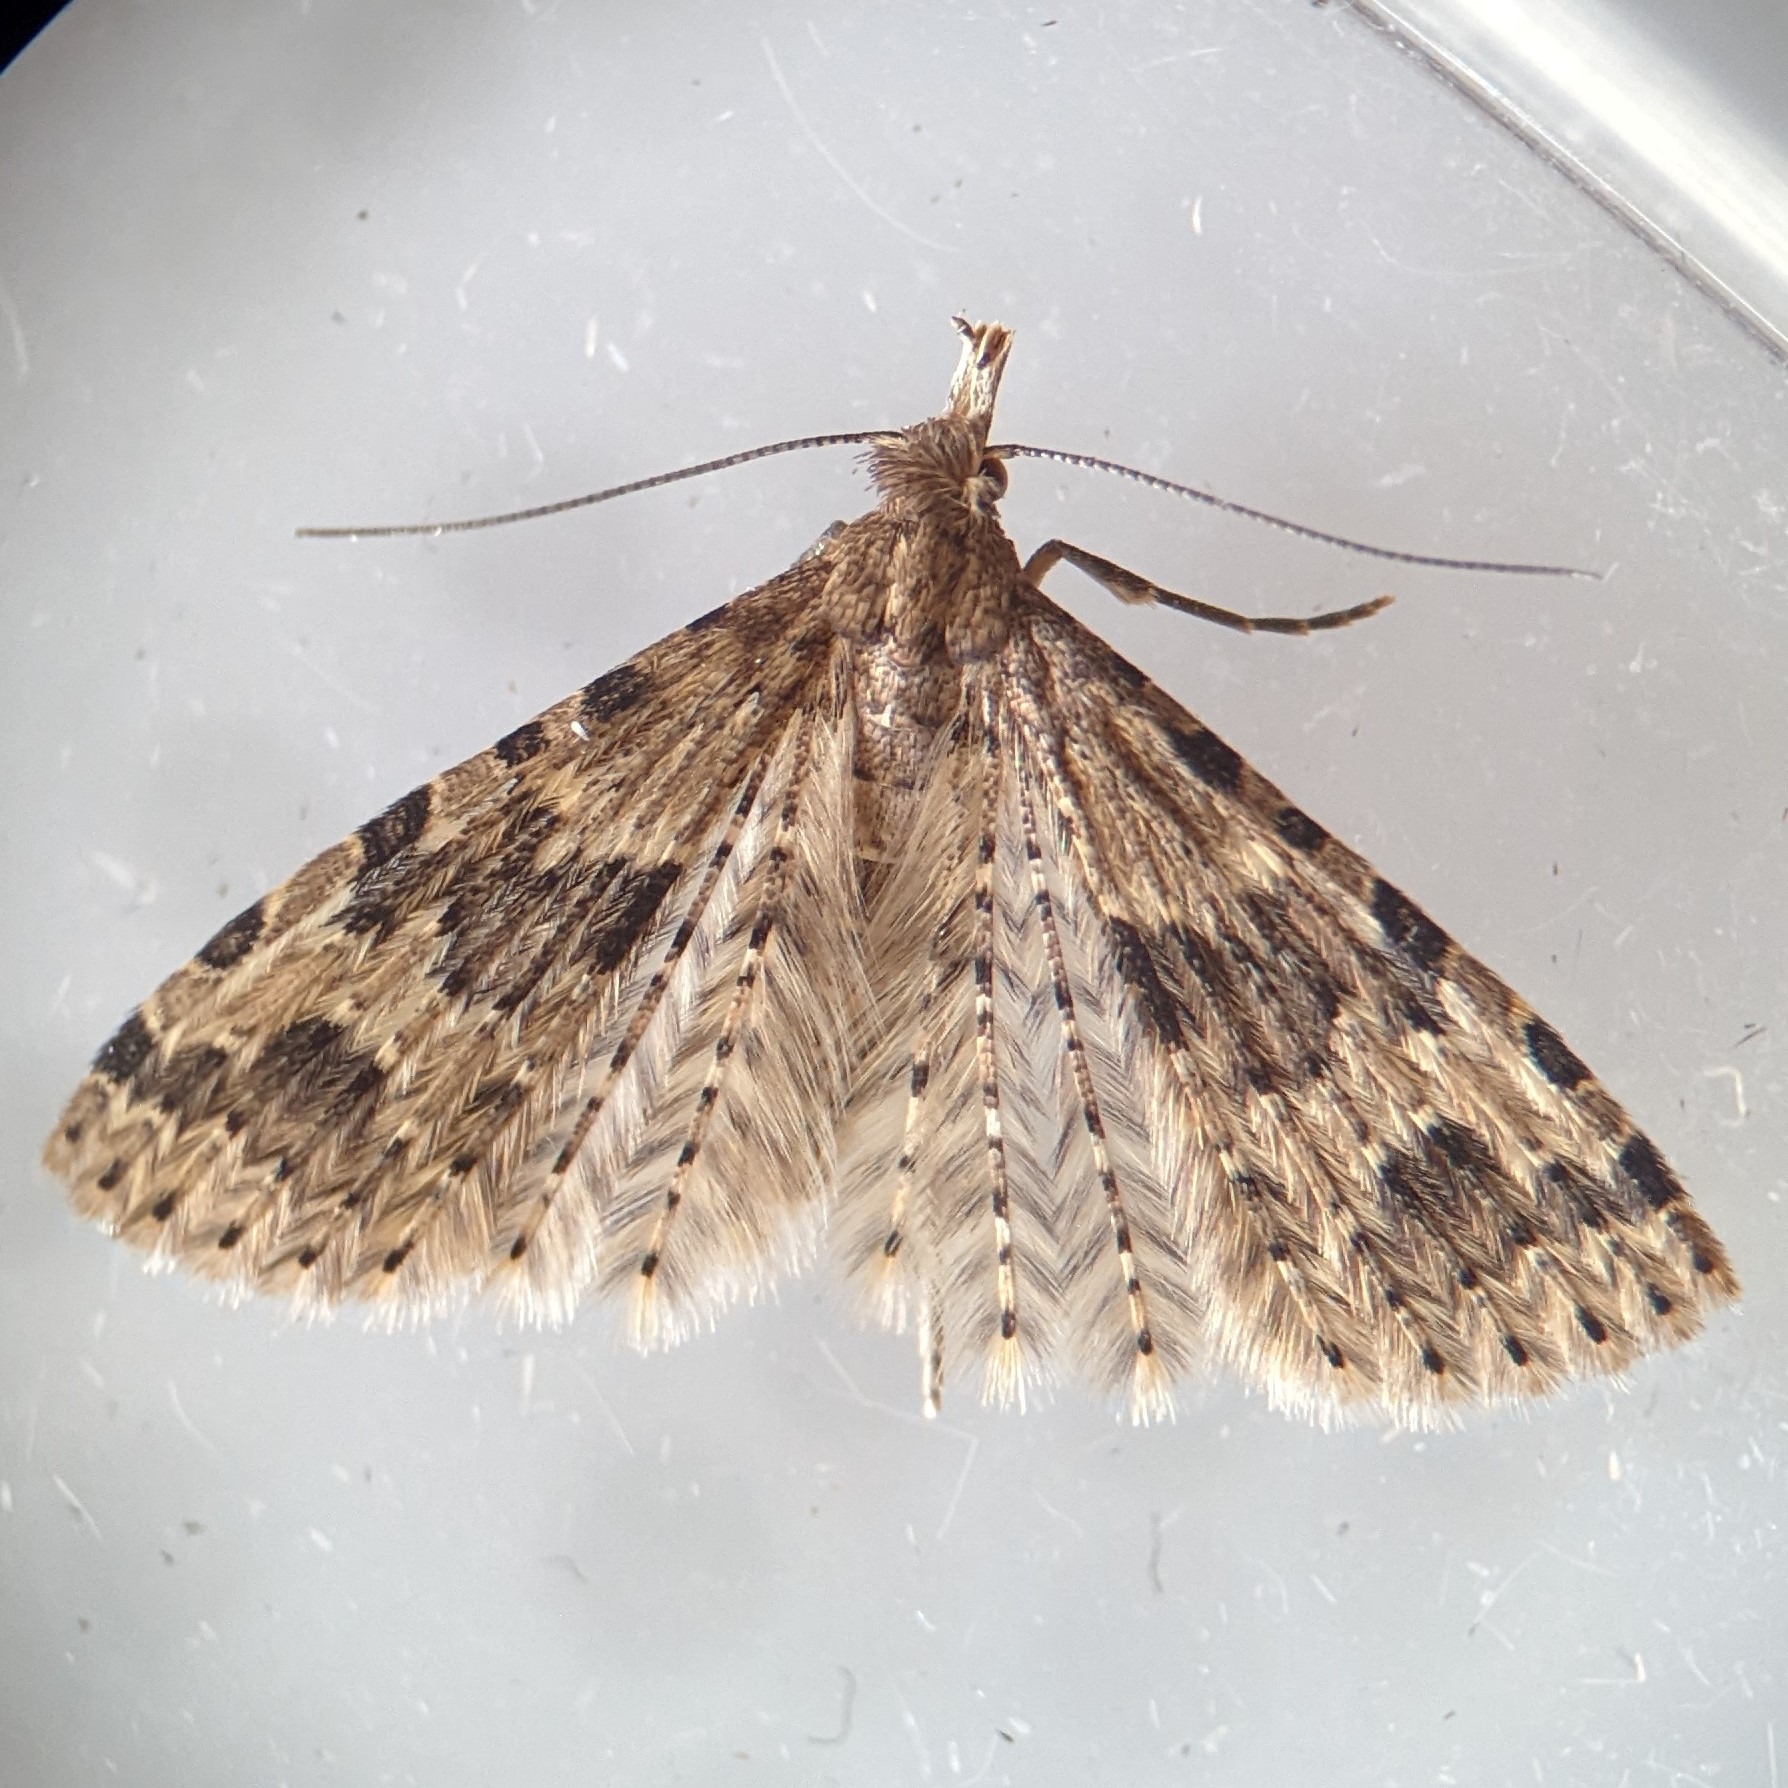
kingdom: Animalia
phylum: Arthropoda
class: Insecta
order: Lepidoptera
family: Alucitidae
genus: Alucita
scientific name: Alucita hexadactyla
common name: Kaprifoliefjermøl
